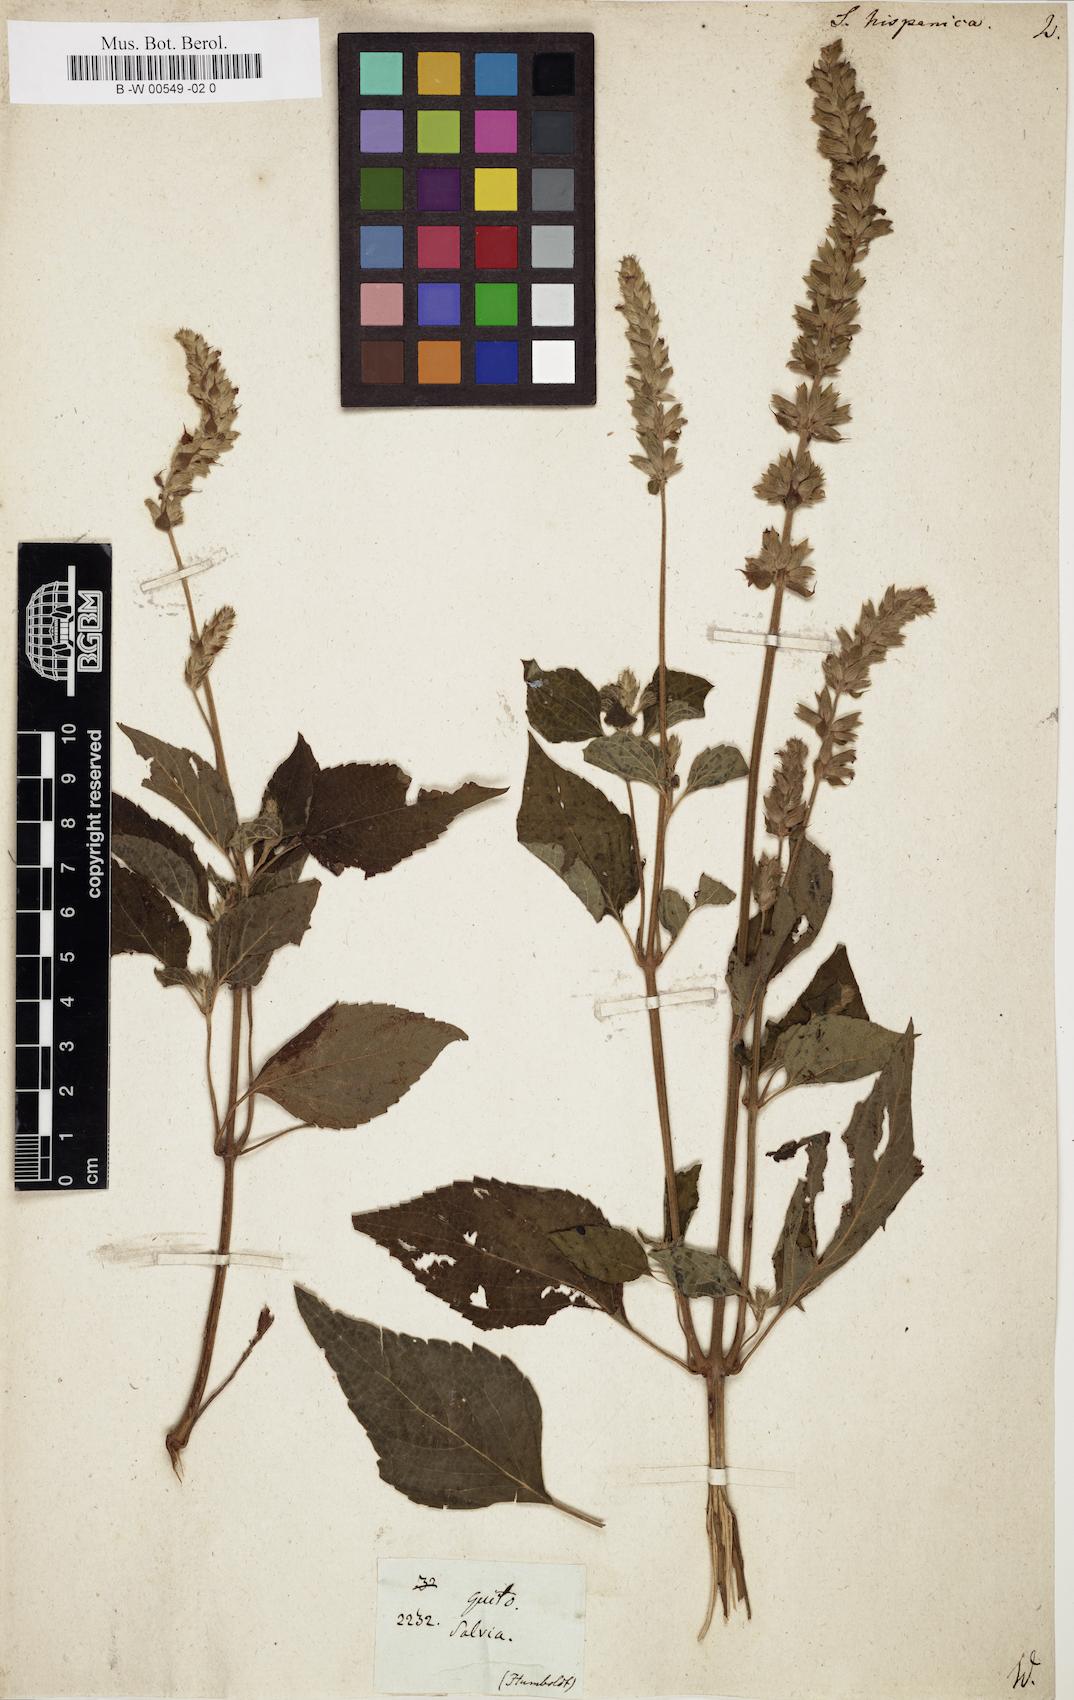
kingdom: Plantae
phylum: Tracheophyta
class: Magnoliopsida
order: Lamiales
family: Lamiaceae
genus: Salvia
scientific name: Salvia hispanica
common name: Chia
